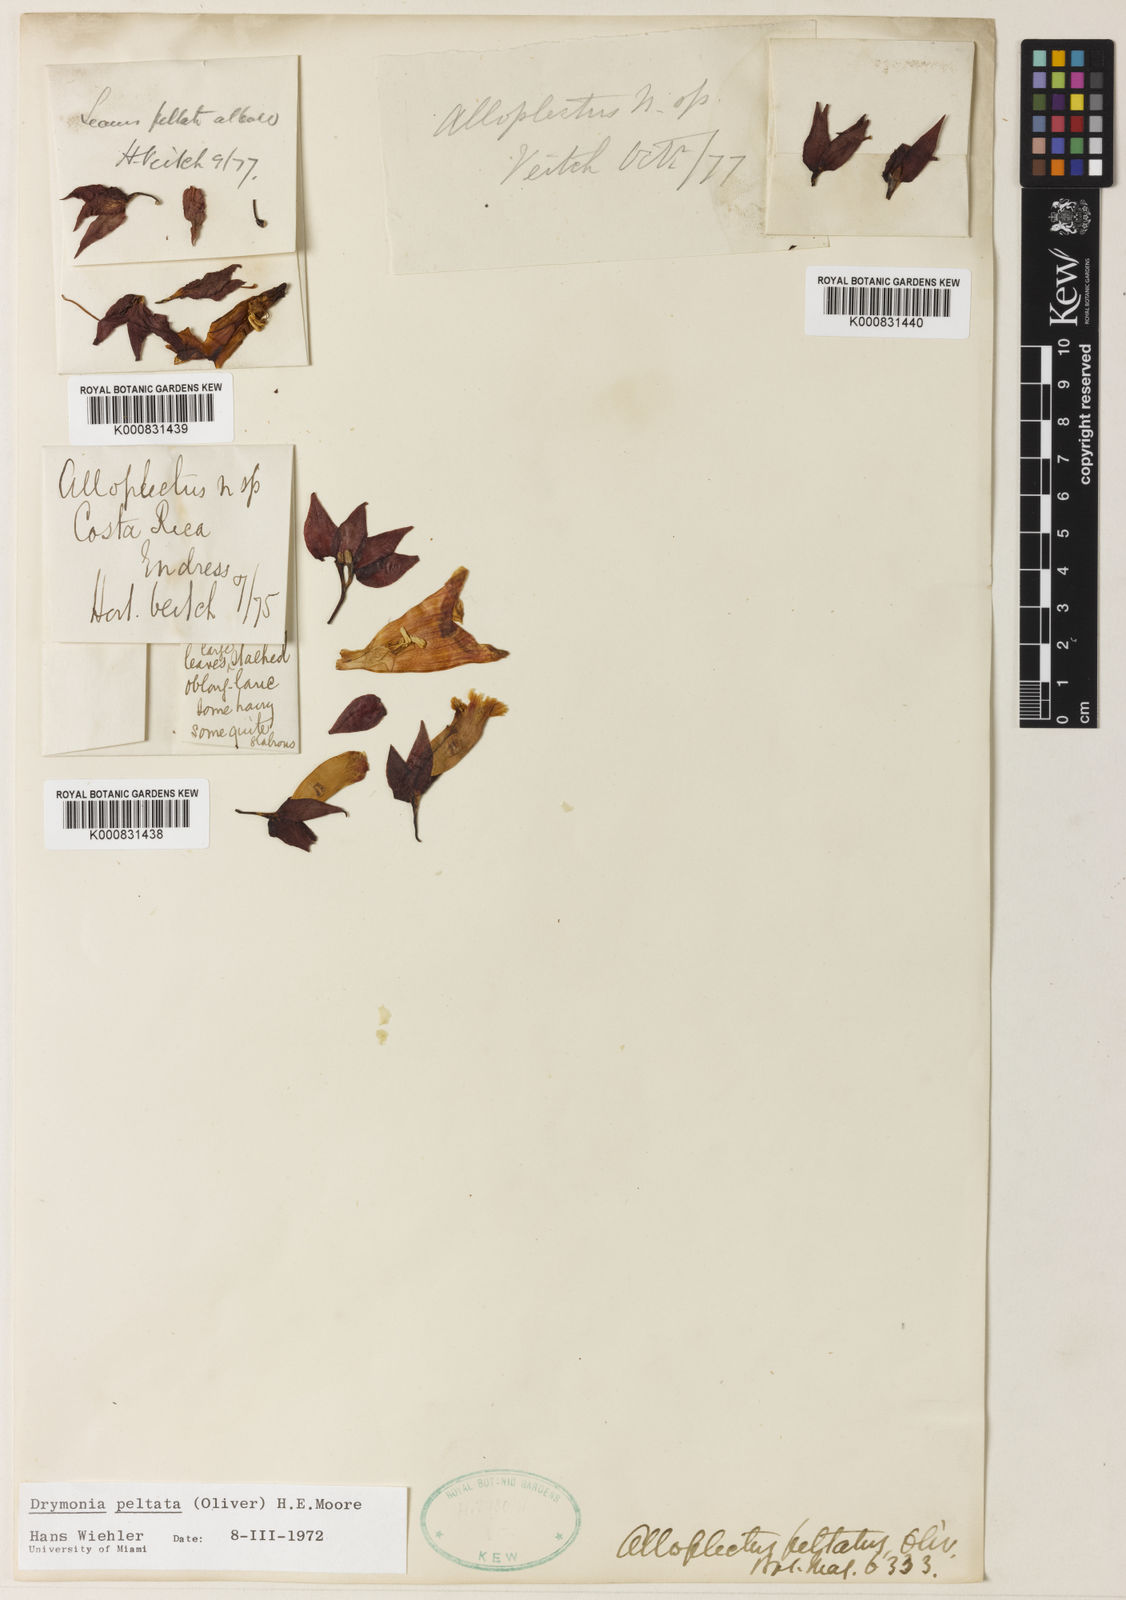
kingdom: Plantae
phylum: Tracheophyta
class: Magnoliopsida
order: Lamiales
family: Gesneriaceae
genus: Drymonia
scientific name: Drymonia peltata
